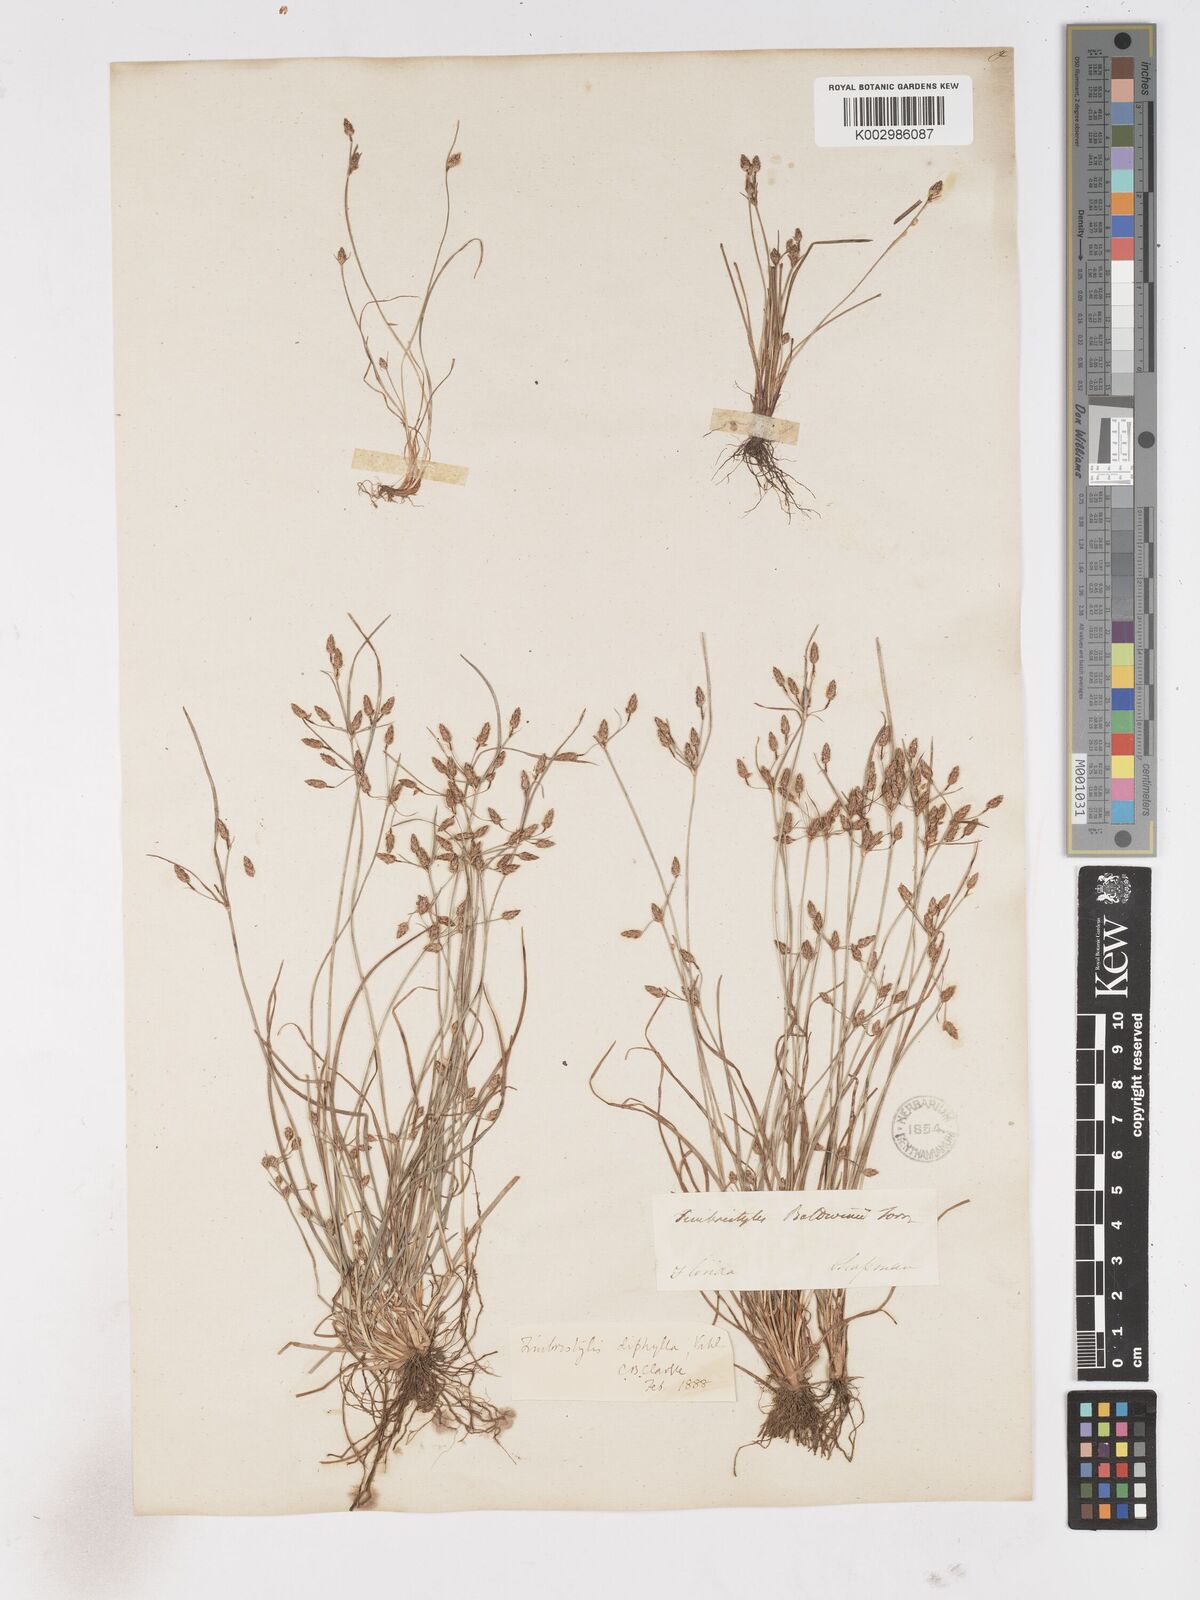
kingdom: Plantae
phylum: Tracheophyta
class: Liliopsida
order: Poales
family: Cyperaceae
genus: Fimbristylis
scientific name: Fimbristylis dichotoma
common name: Forked fimbry
